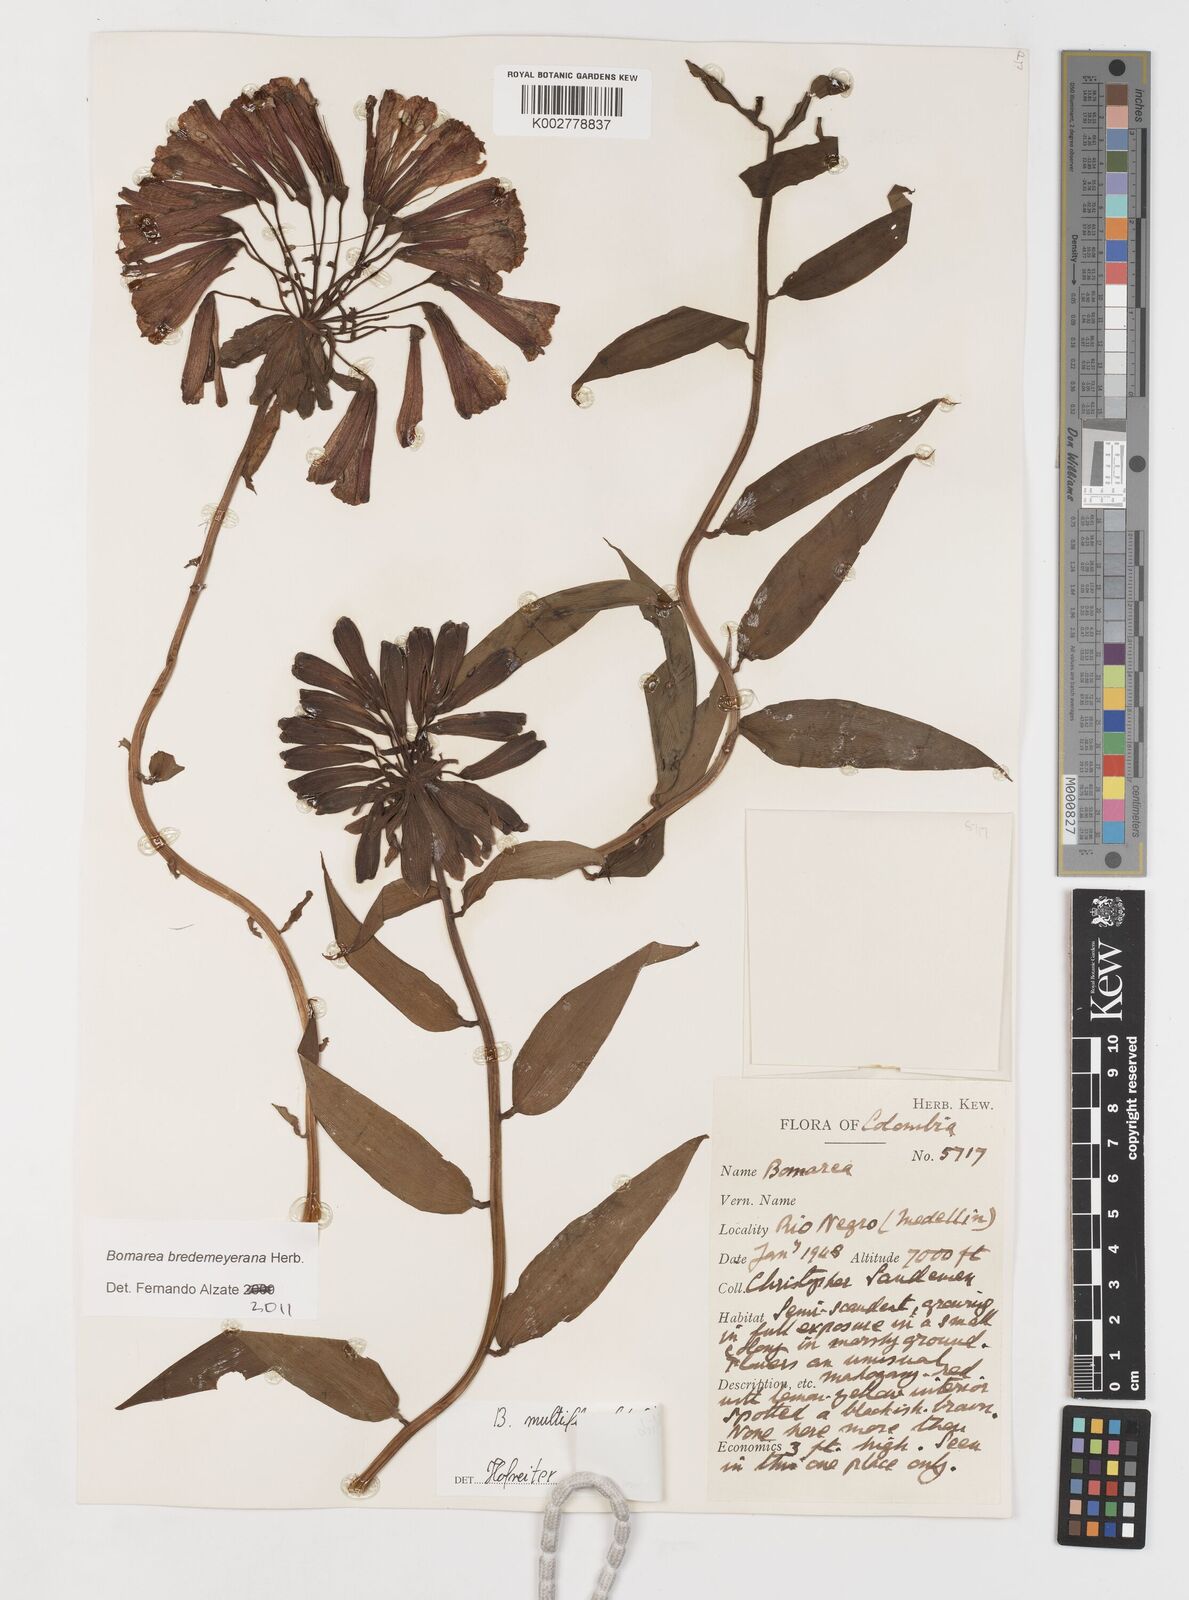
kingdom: Plantae
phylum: Tracheophyta
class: Liliopsida
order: Liliales
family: Alstroemeriaceae
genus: Bomarea
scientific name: Bomarea bredemeyeriana
